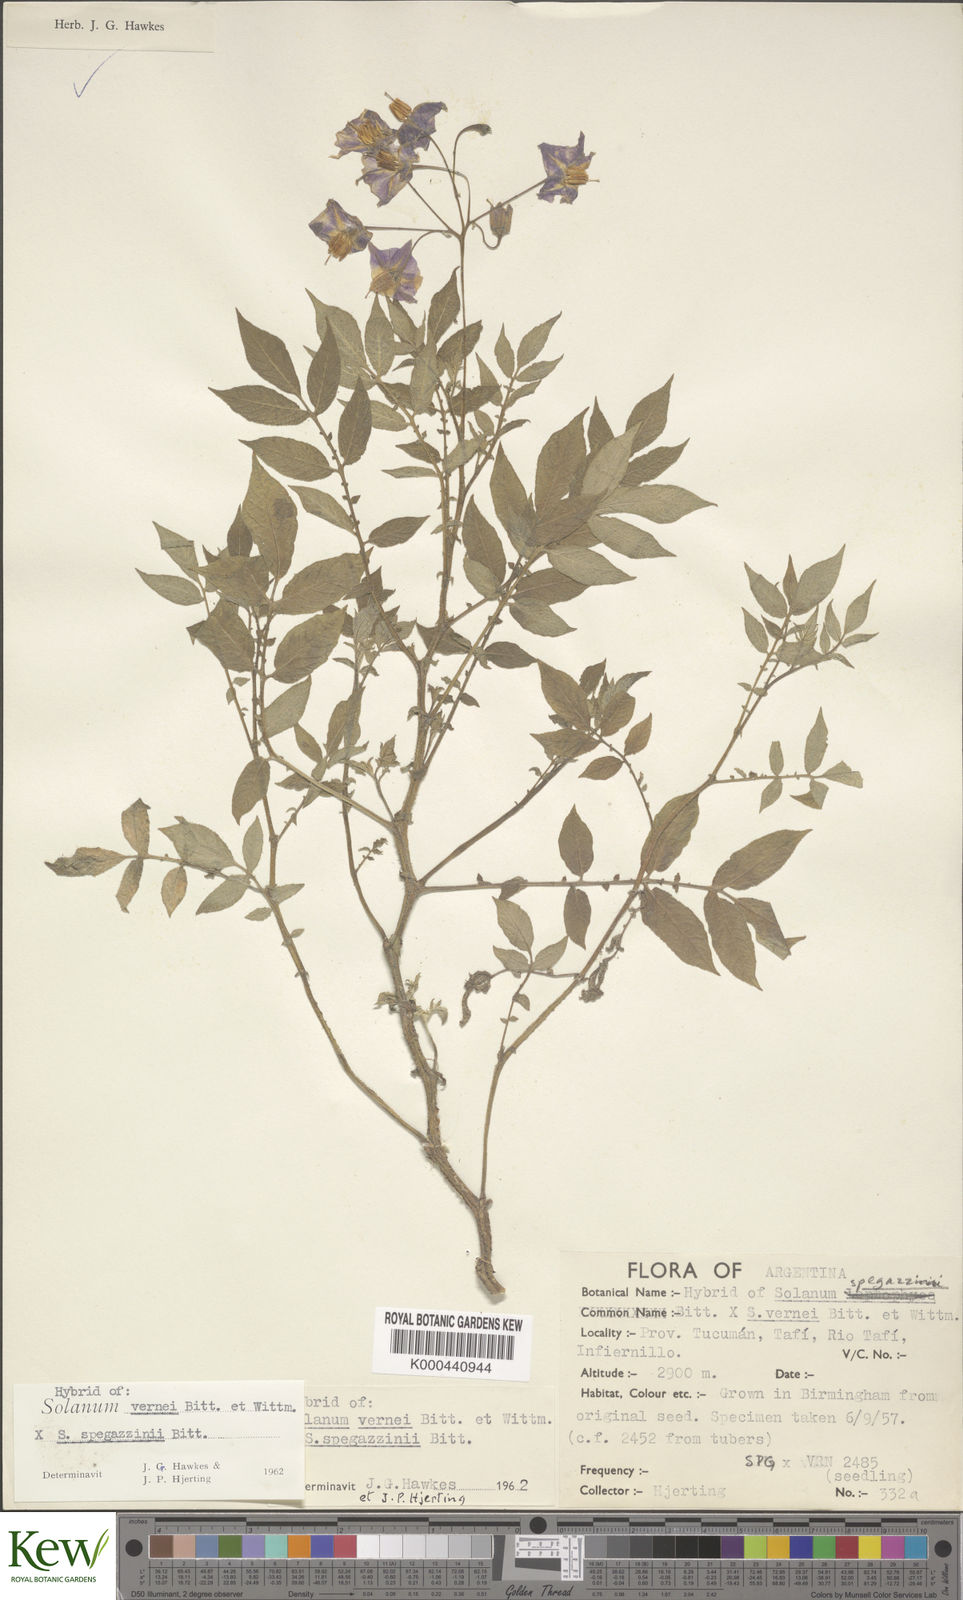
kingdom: Plantae
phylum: Tracheophyta
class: Magnoliopsida
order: Solanales
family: Solanaceae
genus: Solanum
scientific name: Solanum vernei
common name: Purple potato
